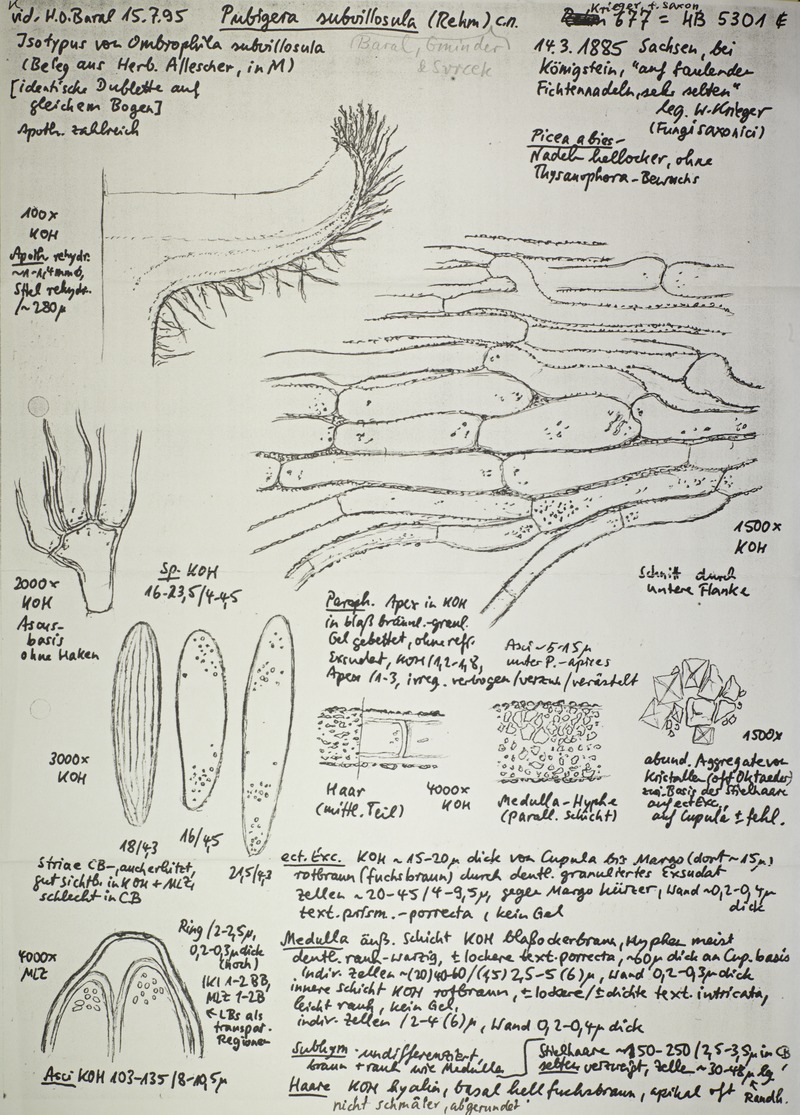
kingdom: Fungi
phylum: Ascomycota
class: Leotiomycetes
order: Helotiales
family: Hyaloscyphaceae
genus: Pubigera
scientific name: Pubigera subvillosula
